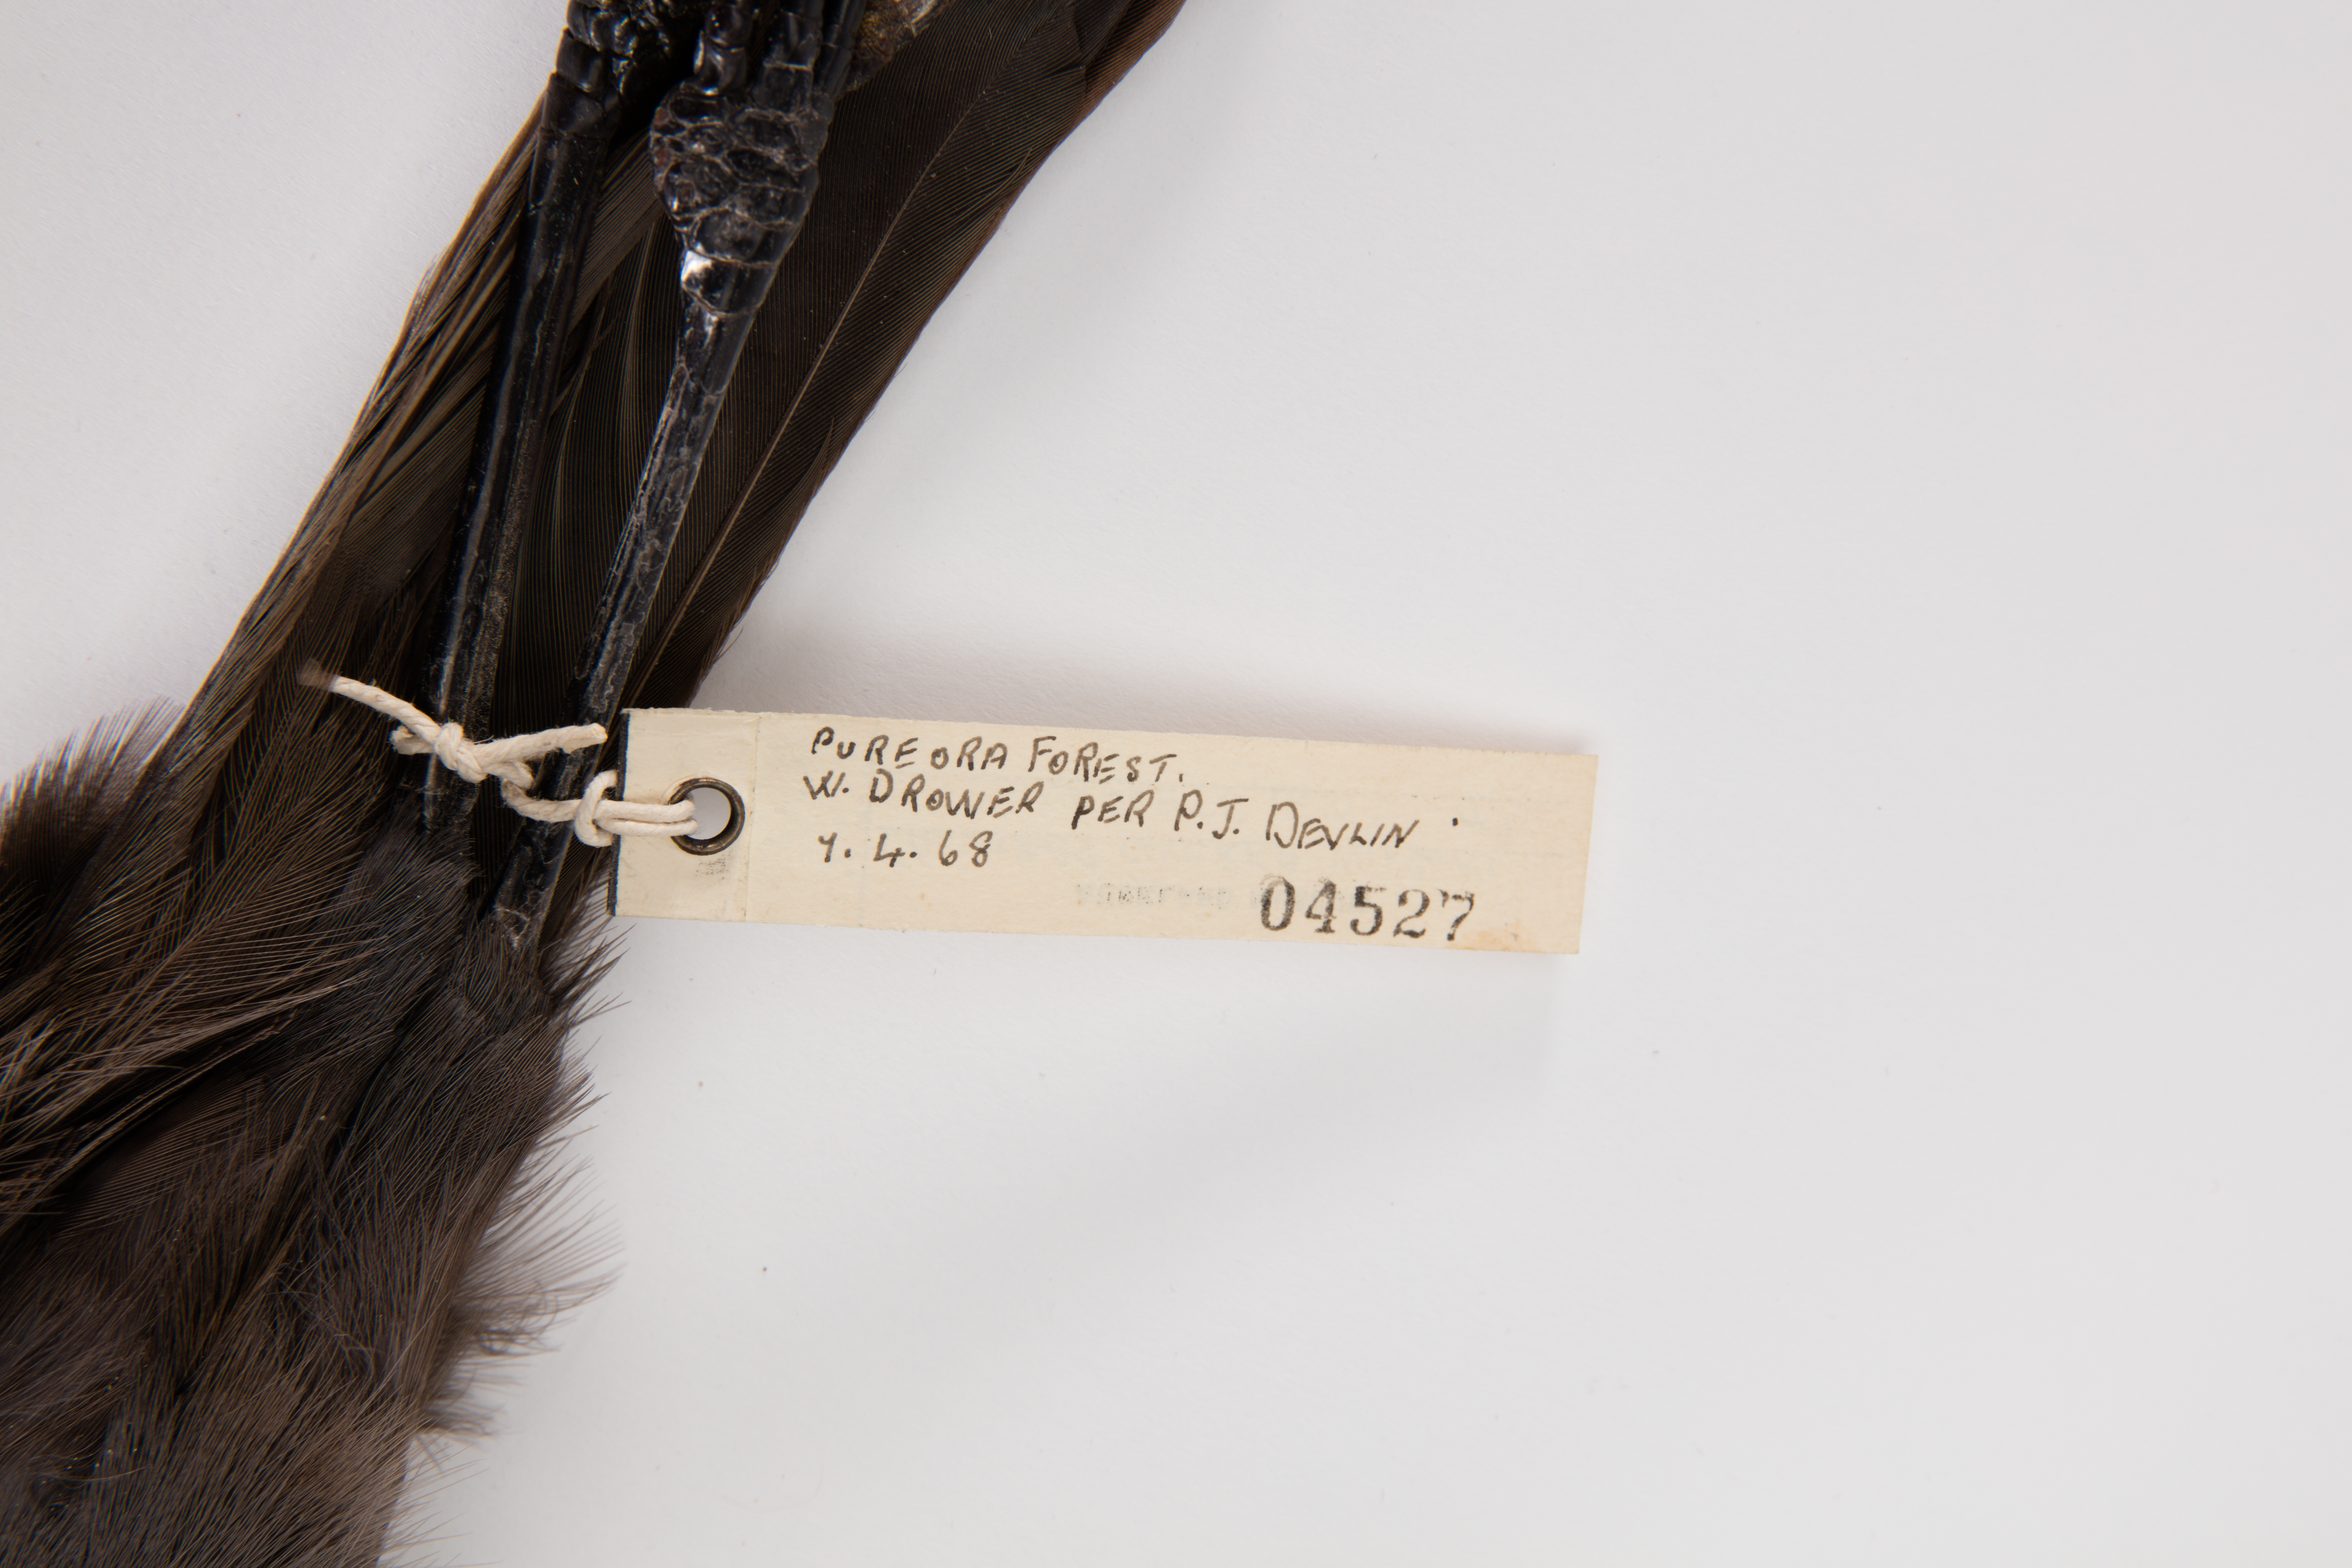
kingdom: Animalia
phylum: Chordata
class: Aves
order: Passeriformes
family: Callaeatidae
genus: Callaeas
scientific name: Callaeas cinereus
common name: South island kokako
